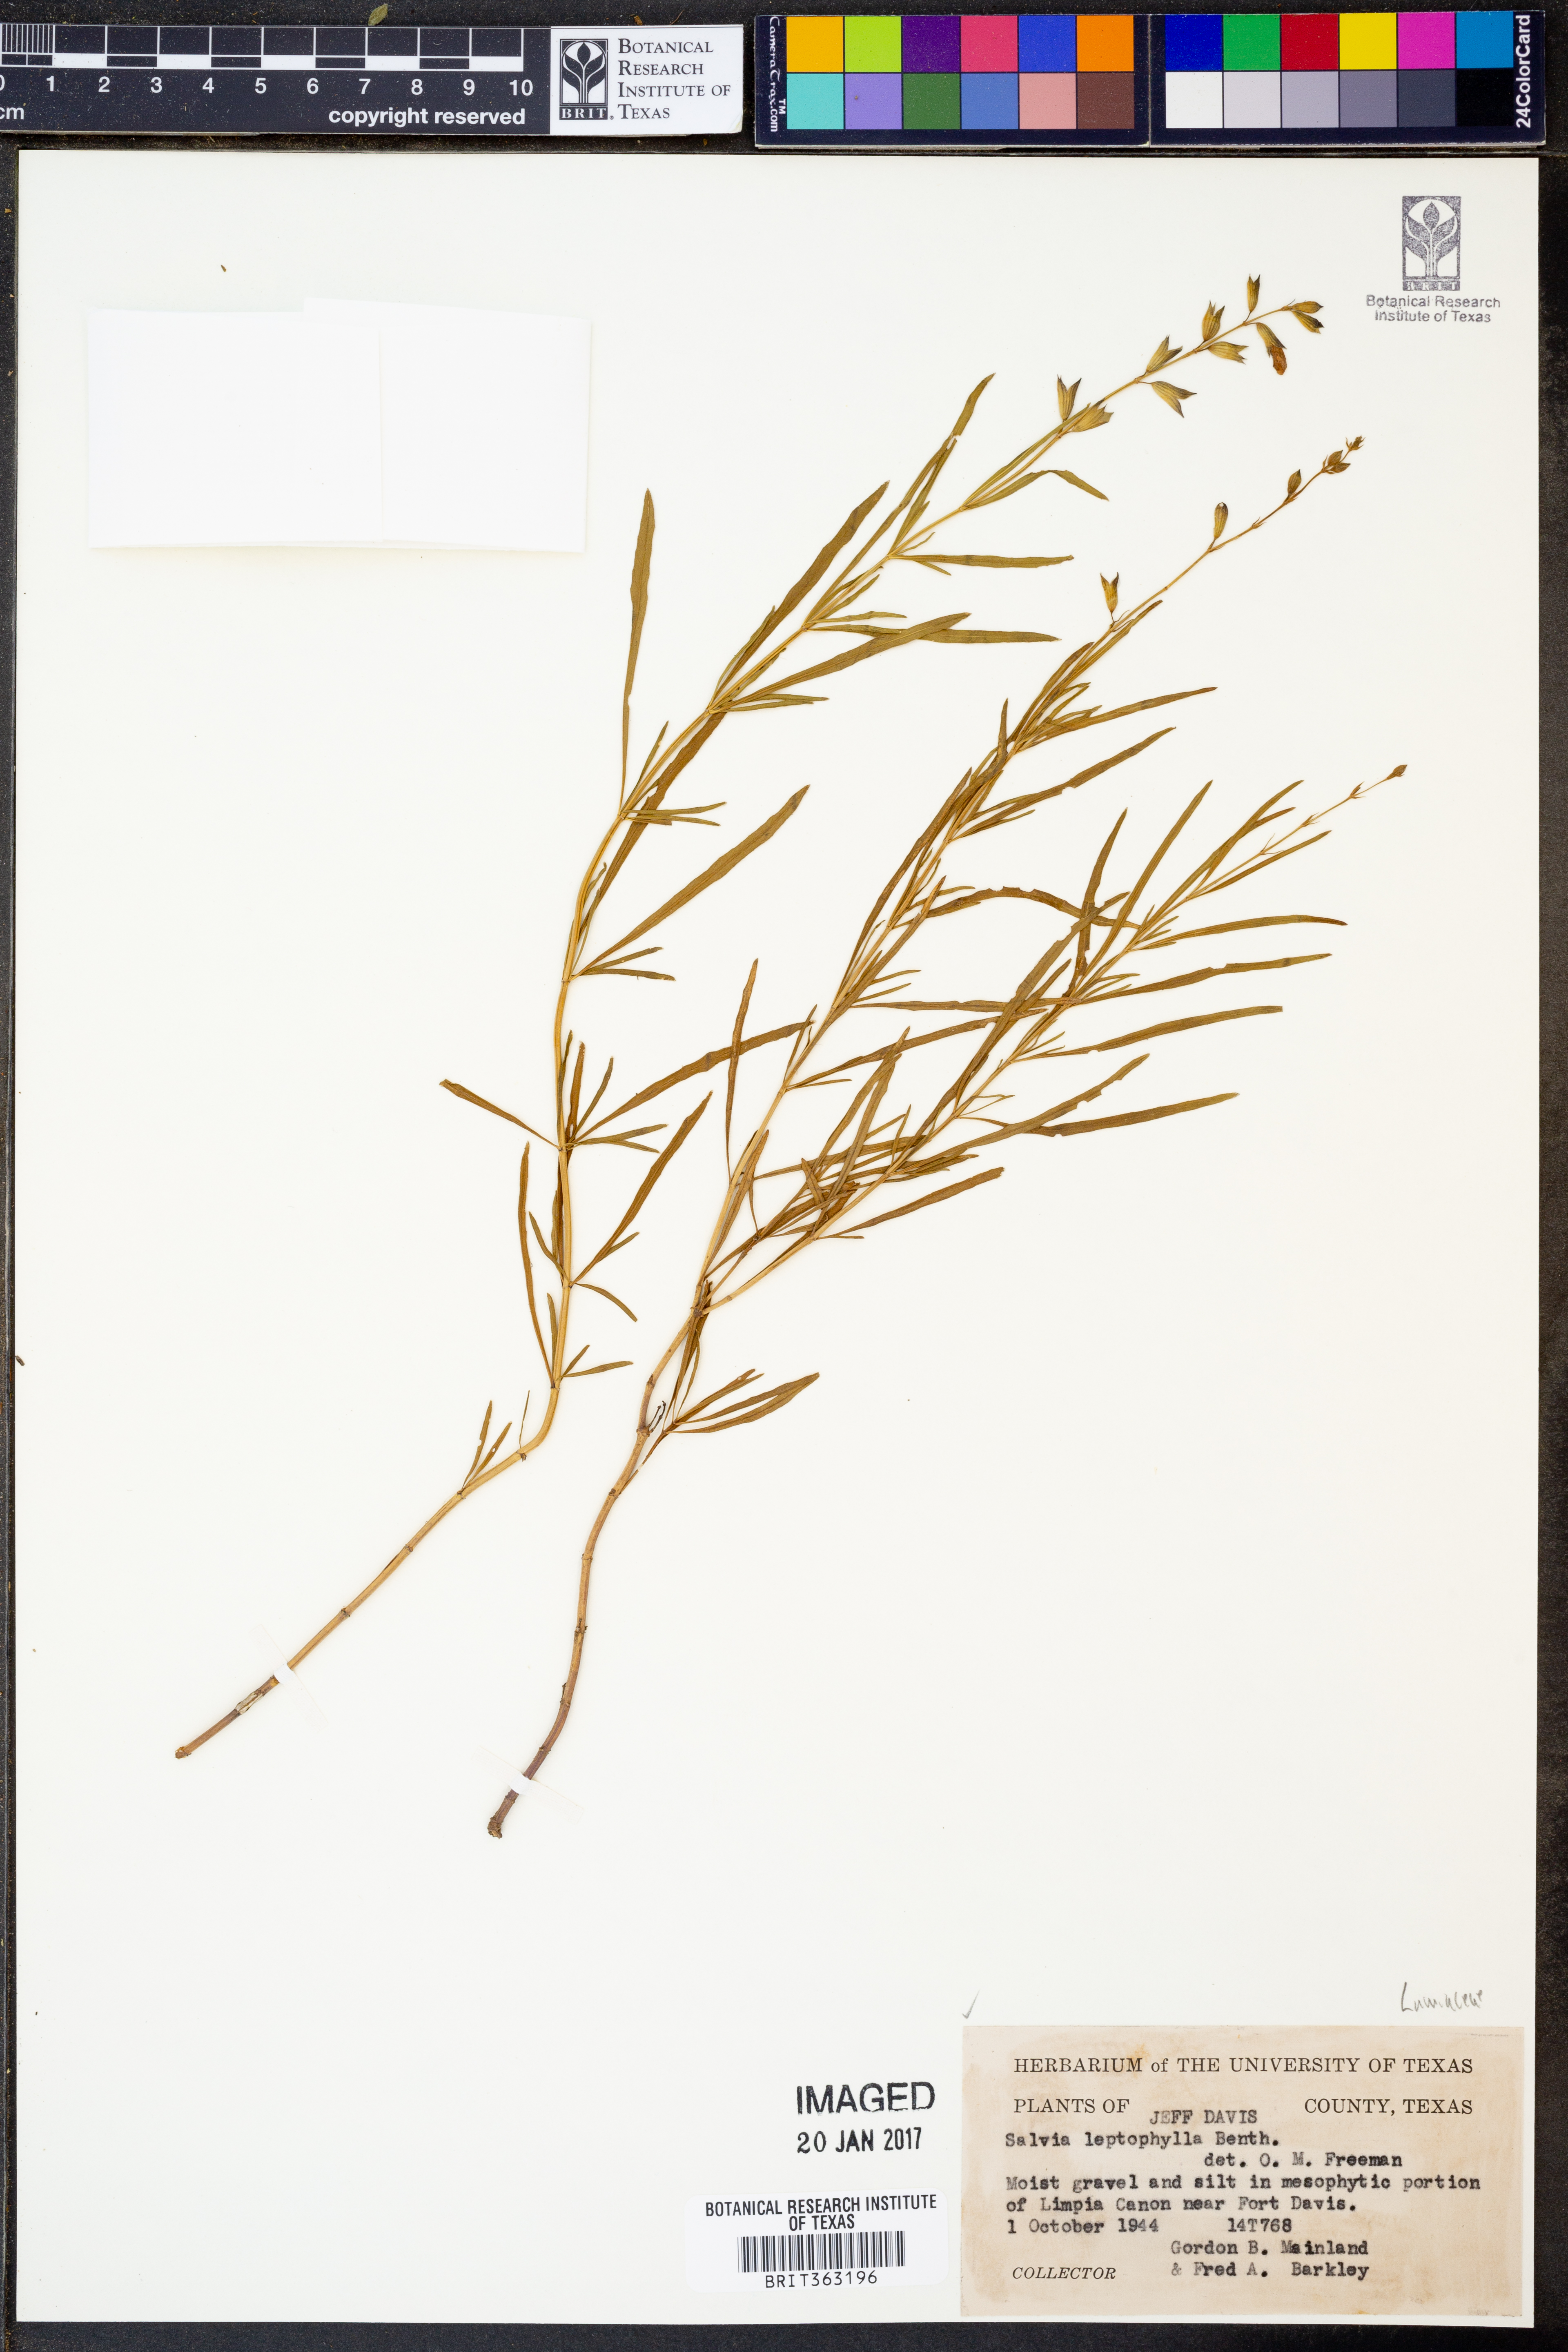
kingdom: Plantae
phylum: Tracheophyta
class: Magnoliopsida
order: Lamiales
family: Lamiaceae
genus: Salvia
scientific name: Salvia reptans
